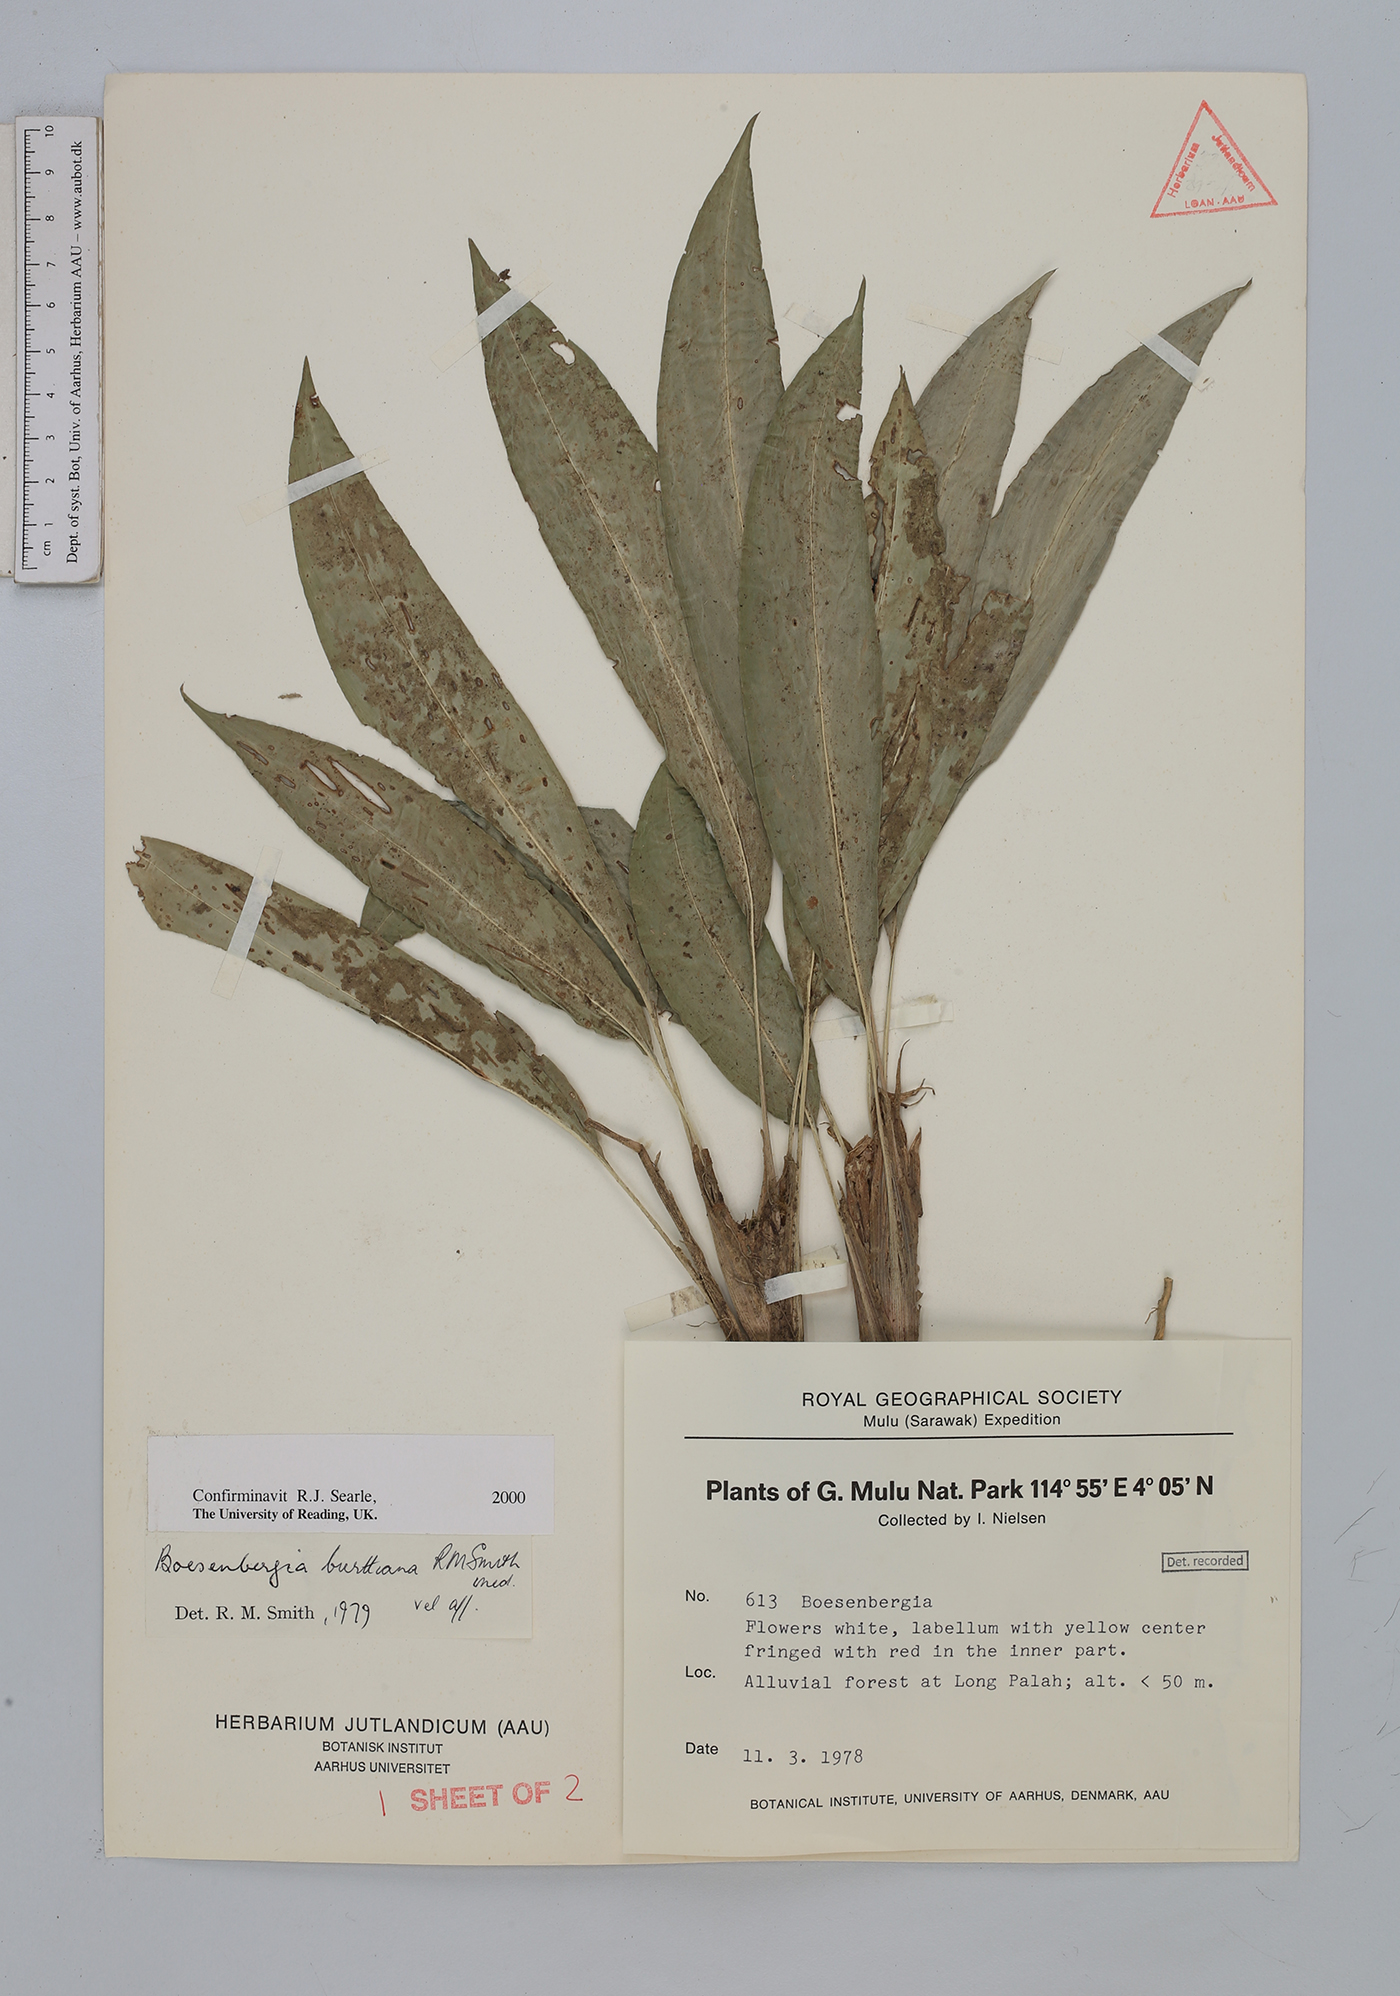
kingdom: Plantae
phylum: Tracheophyta
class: Liliopsida
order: Zingiberales
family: Zingiberaceae
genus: Boesenbergia
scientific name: Boesenbergia burttiana
